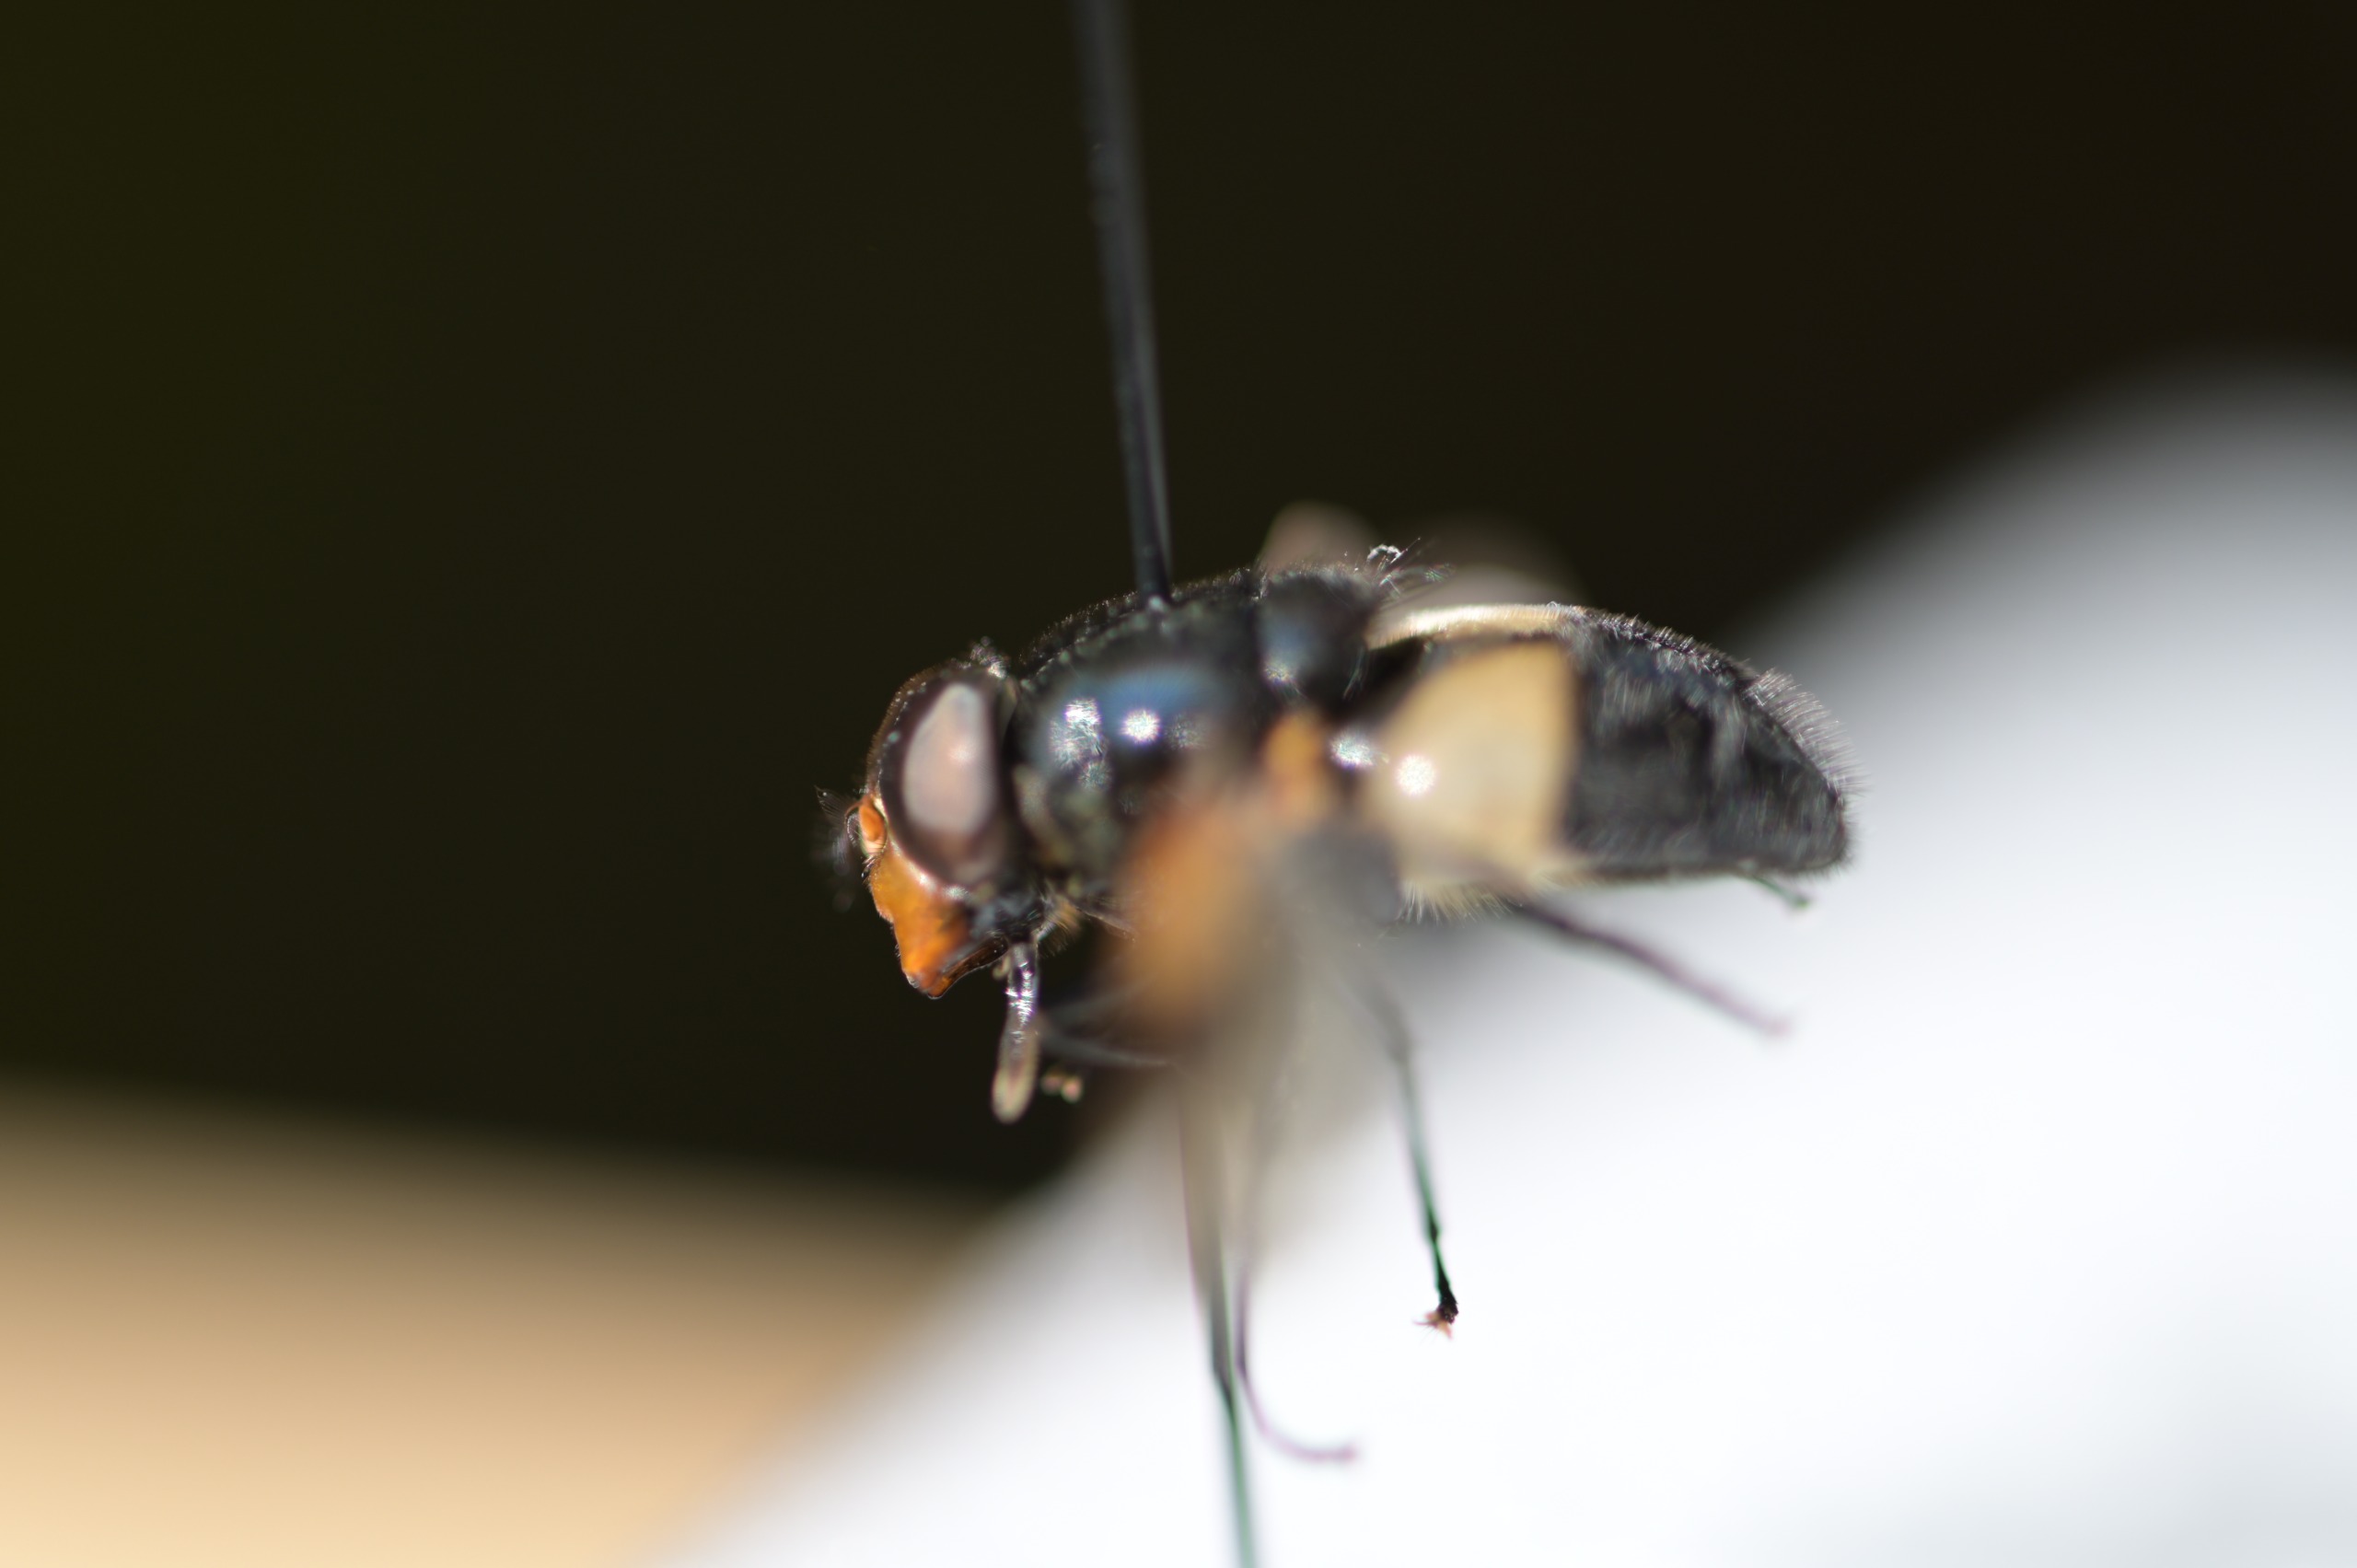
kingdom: Animalia
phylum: Arthropoda
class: Insecta
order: Diptera
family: Syrphidae
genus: Volucella
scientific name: Volucella pellucens
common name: Hvidbåndet humlesvirreflue
